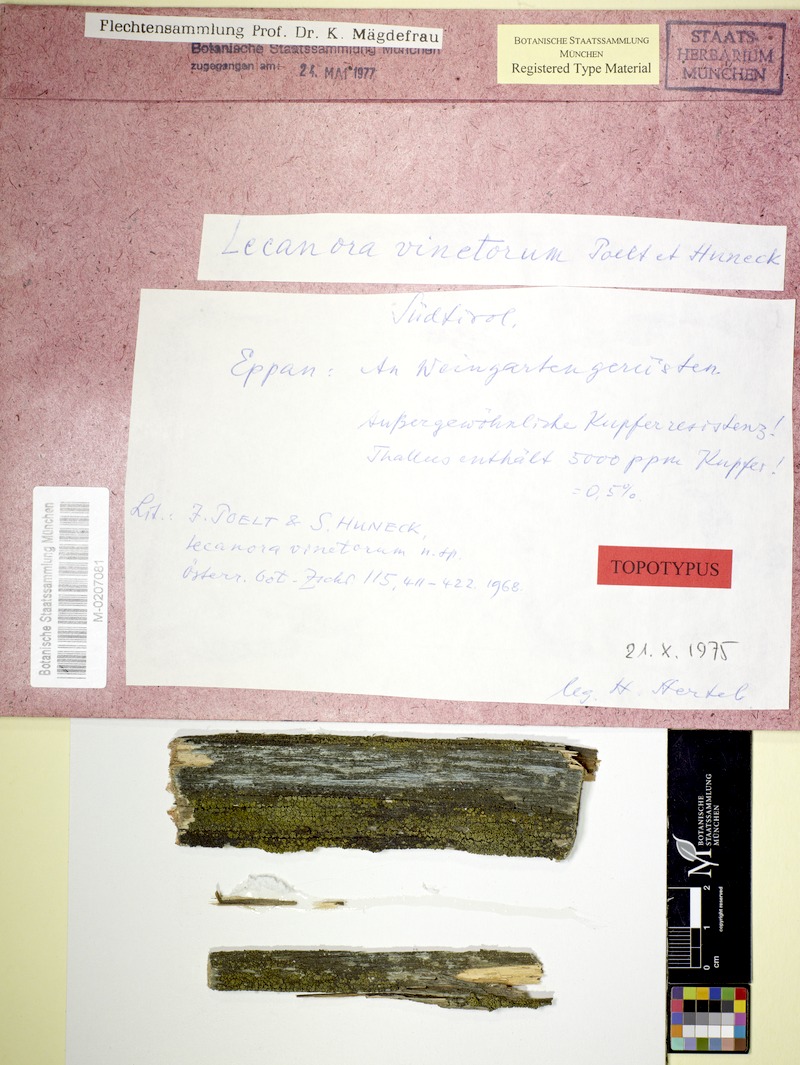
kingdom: Fungi
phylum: Ascomycota
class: Lecanoromycetes
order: Lecanorales
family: Lecanoraceae
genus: Lecanora
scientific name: Lecanora vinetorum
